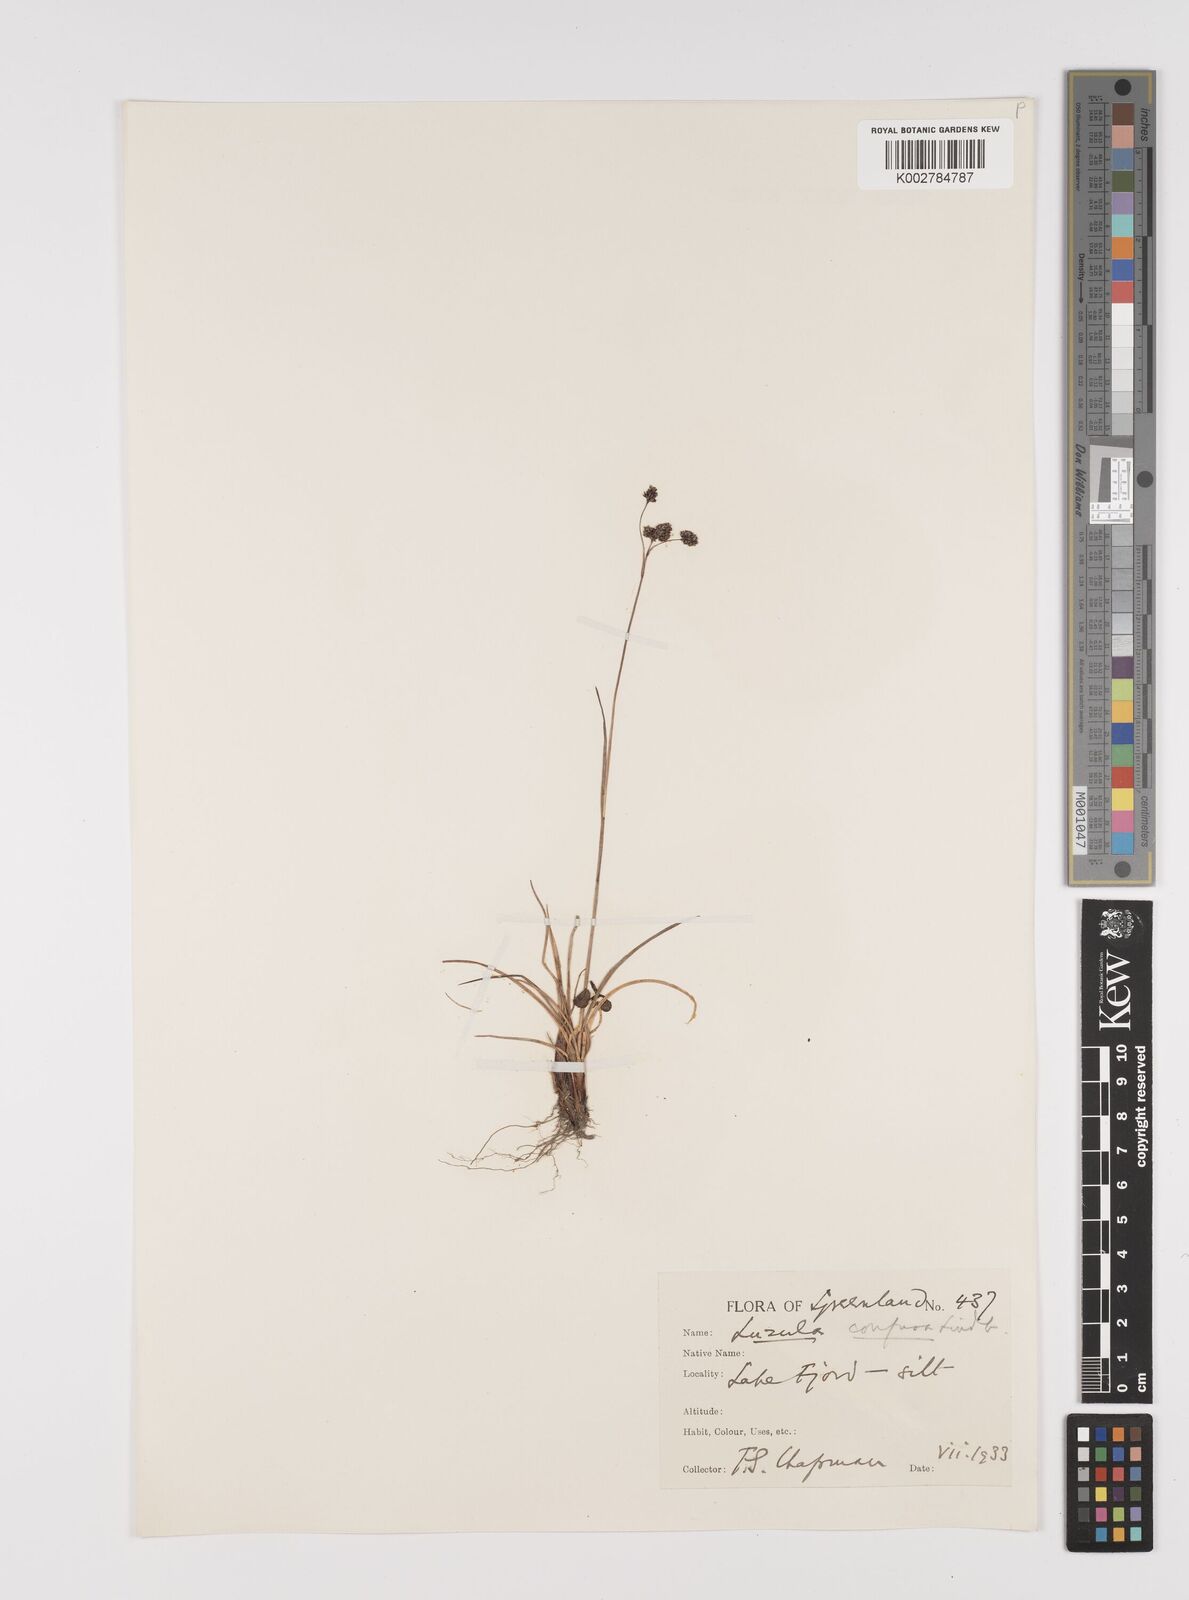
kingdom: Plantae
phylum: Tracheophyta
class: Liliopsida
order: Poales
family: Juncaceae
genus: Luzula
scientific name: Luzula confusa
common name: Northern wood rush
